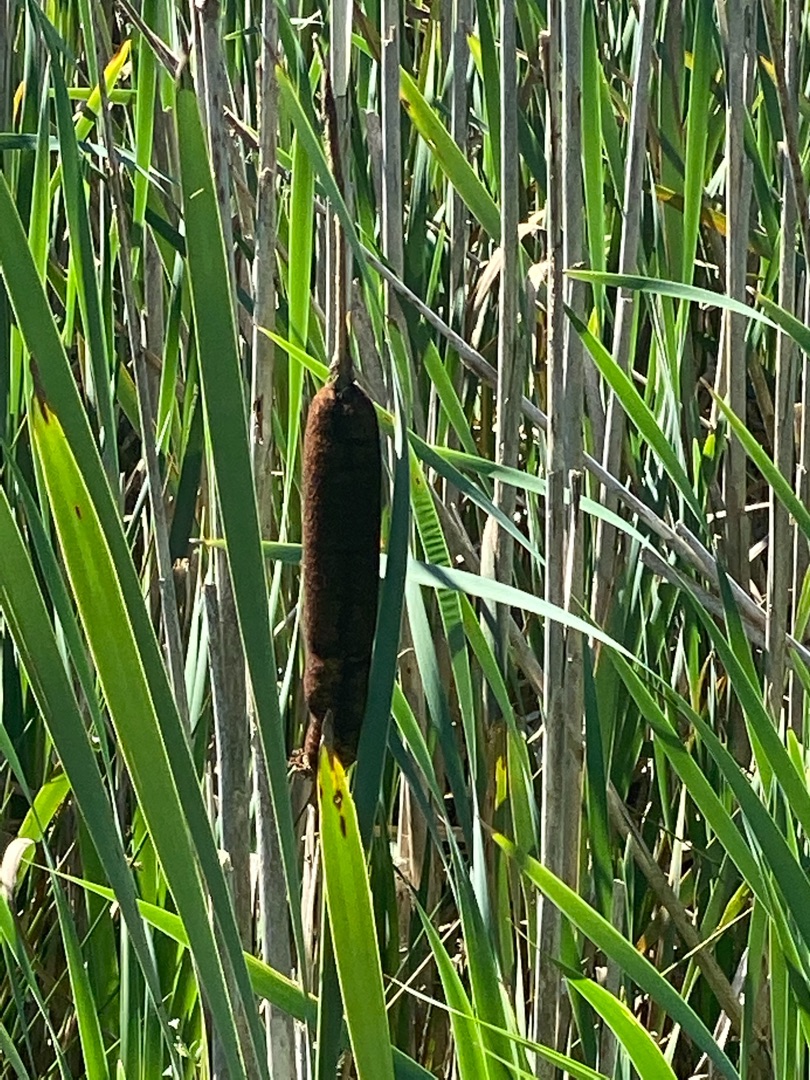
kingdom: Plantae
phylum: Tracheophyta
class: Liliopsida
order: Poales
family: Typhaceae
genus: Typha
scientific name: Typha latifolia
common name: Bredbladet dunhammer
